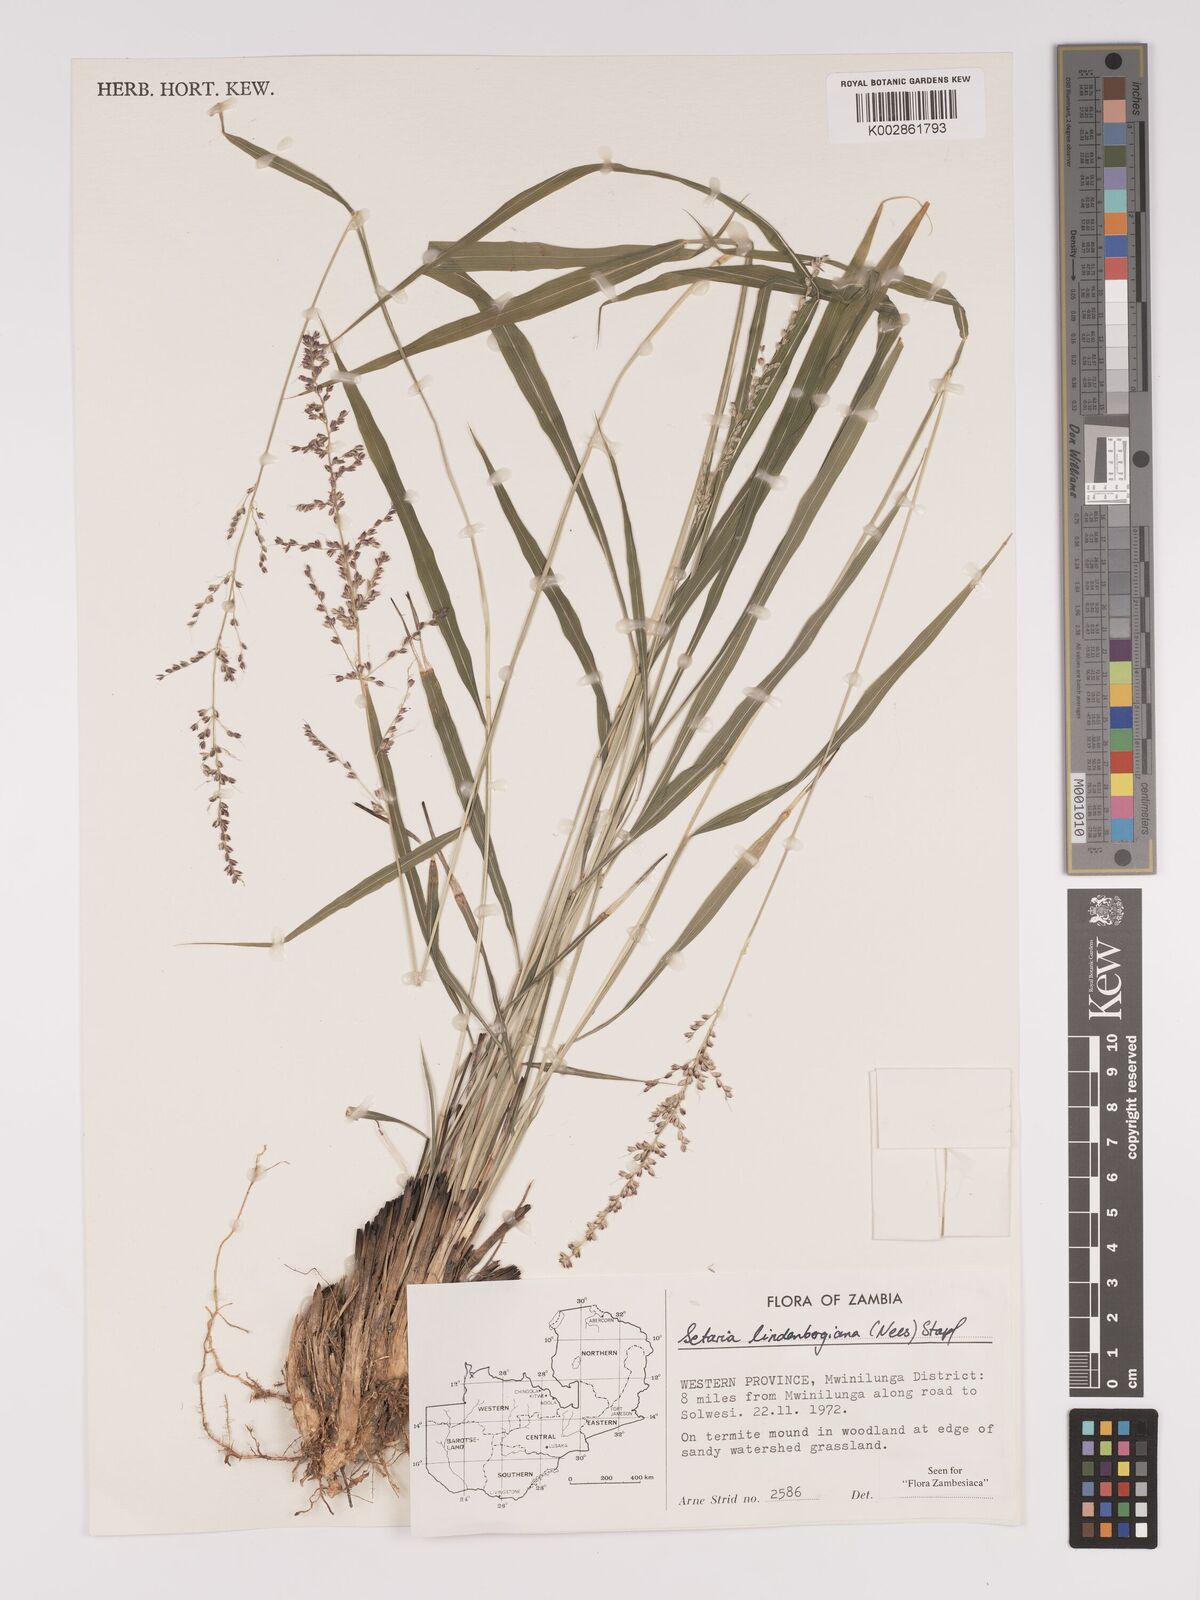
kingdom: Plantae
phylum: Tracheophyta
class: Liliopsida
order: Poales
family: Poaceae
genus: Setaria
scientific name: Setaria lindenbergiana
